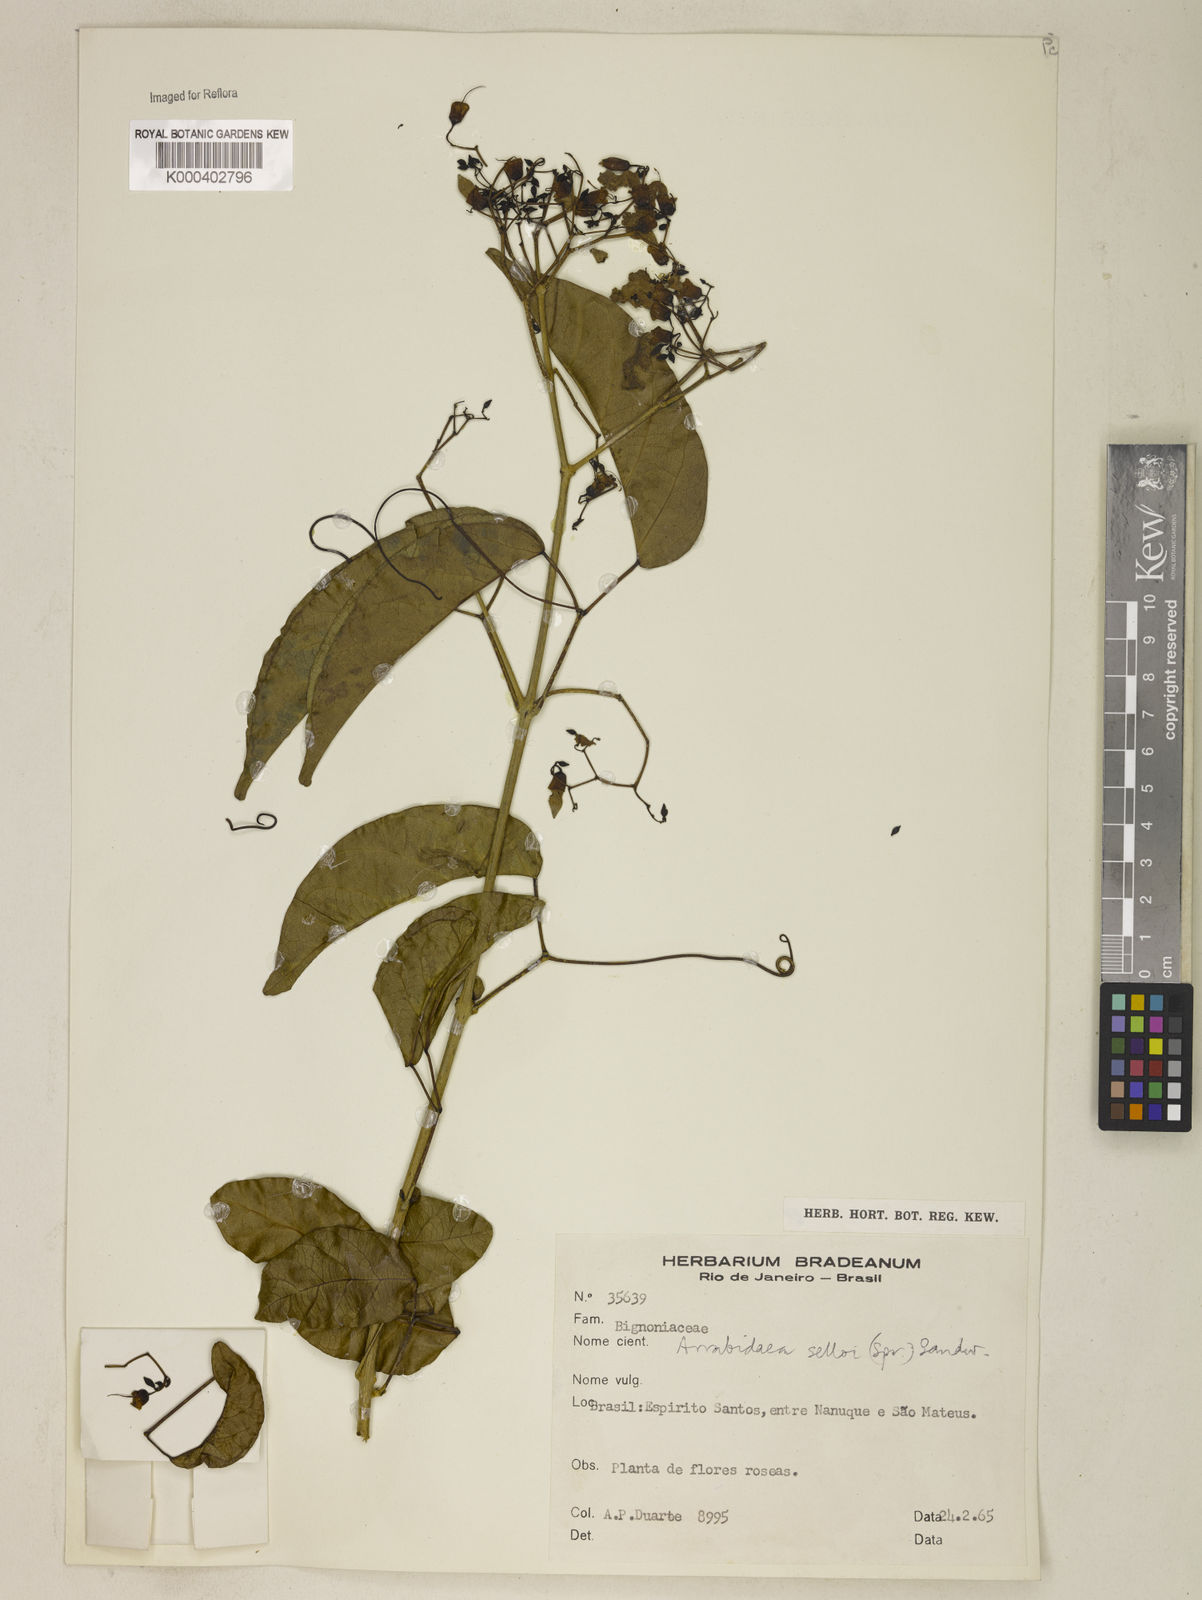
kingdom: Plantae
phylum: Tracheophyta
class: Magnoliopsida
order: Lamiales
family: Bignoniaceae
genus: Tanaecium
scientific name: Tanaecium selloi
